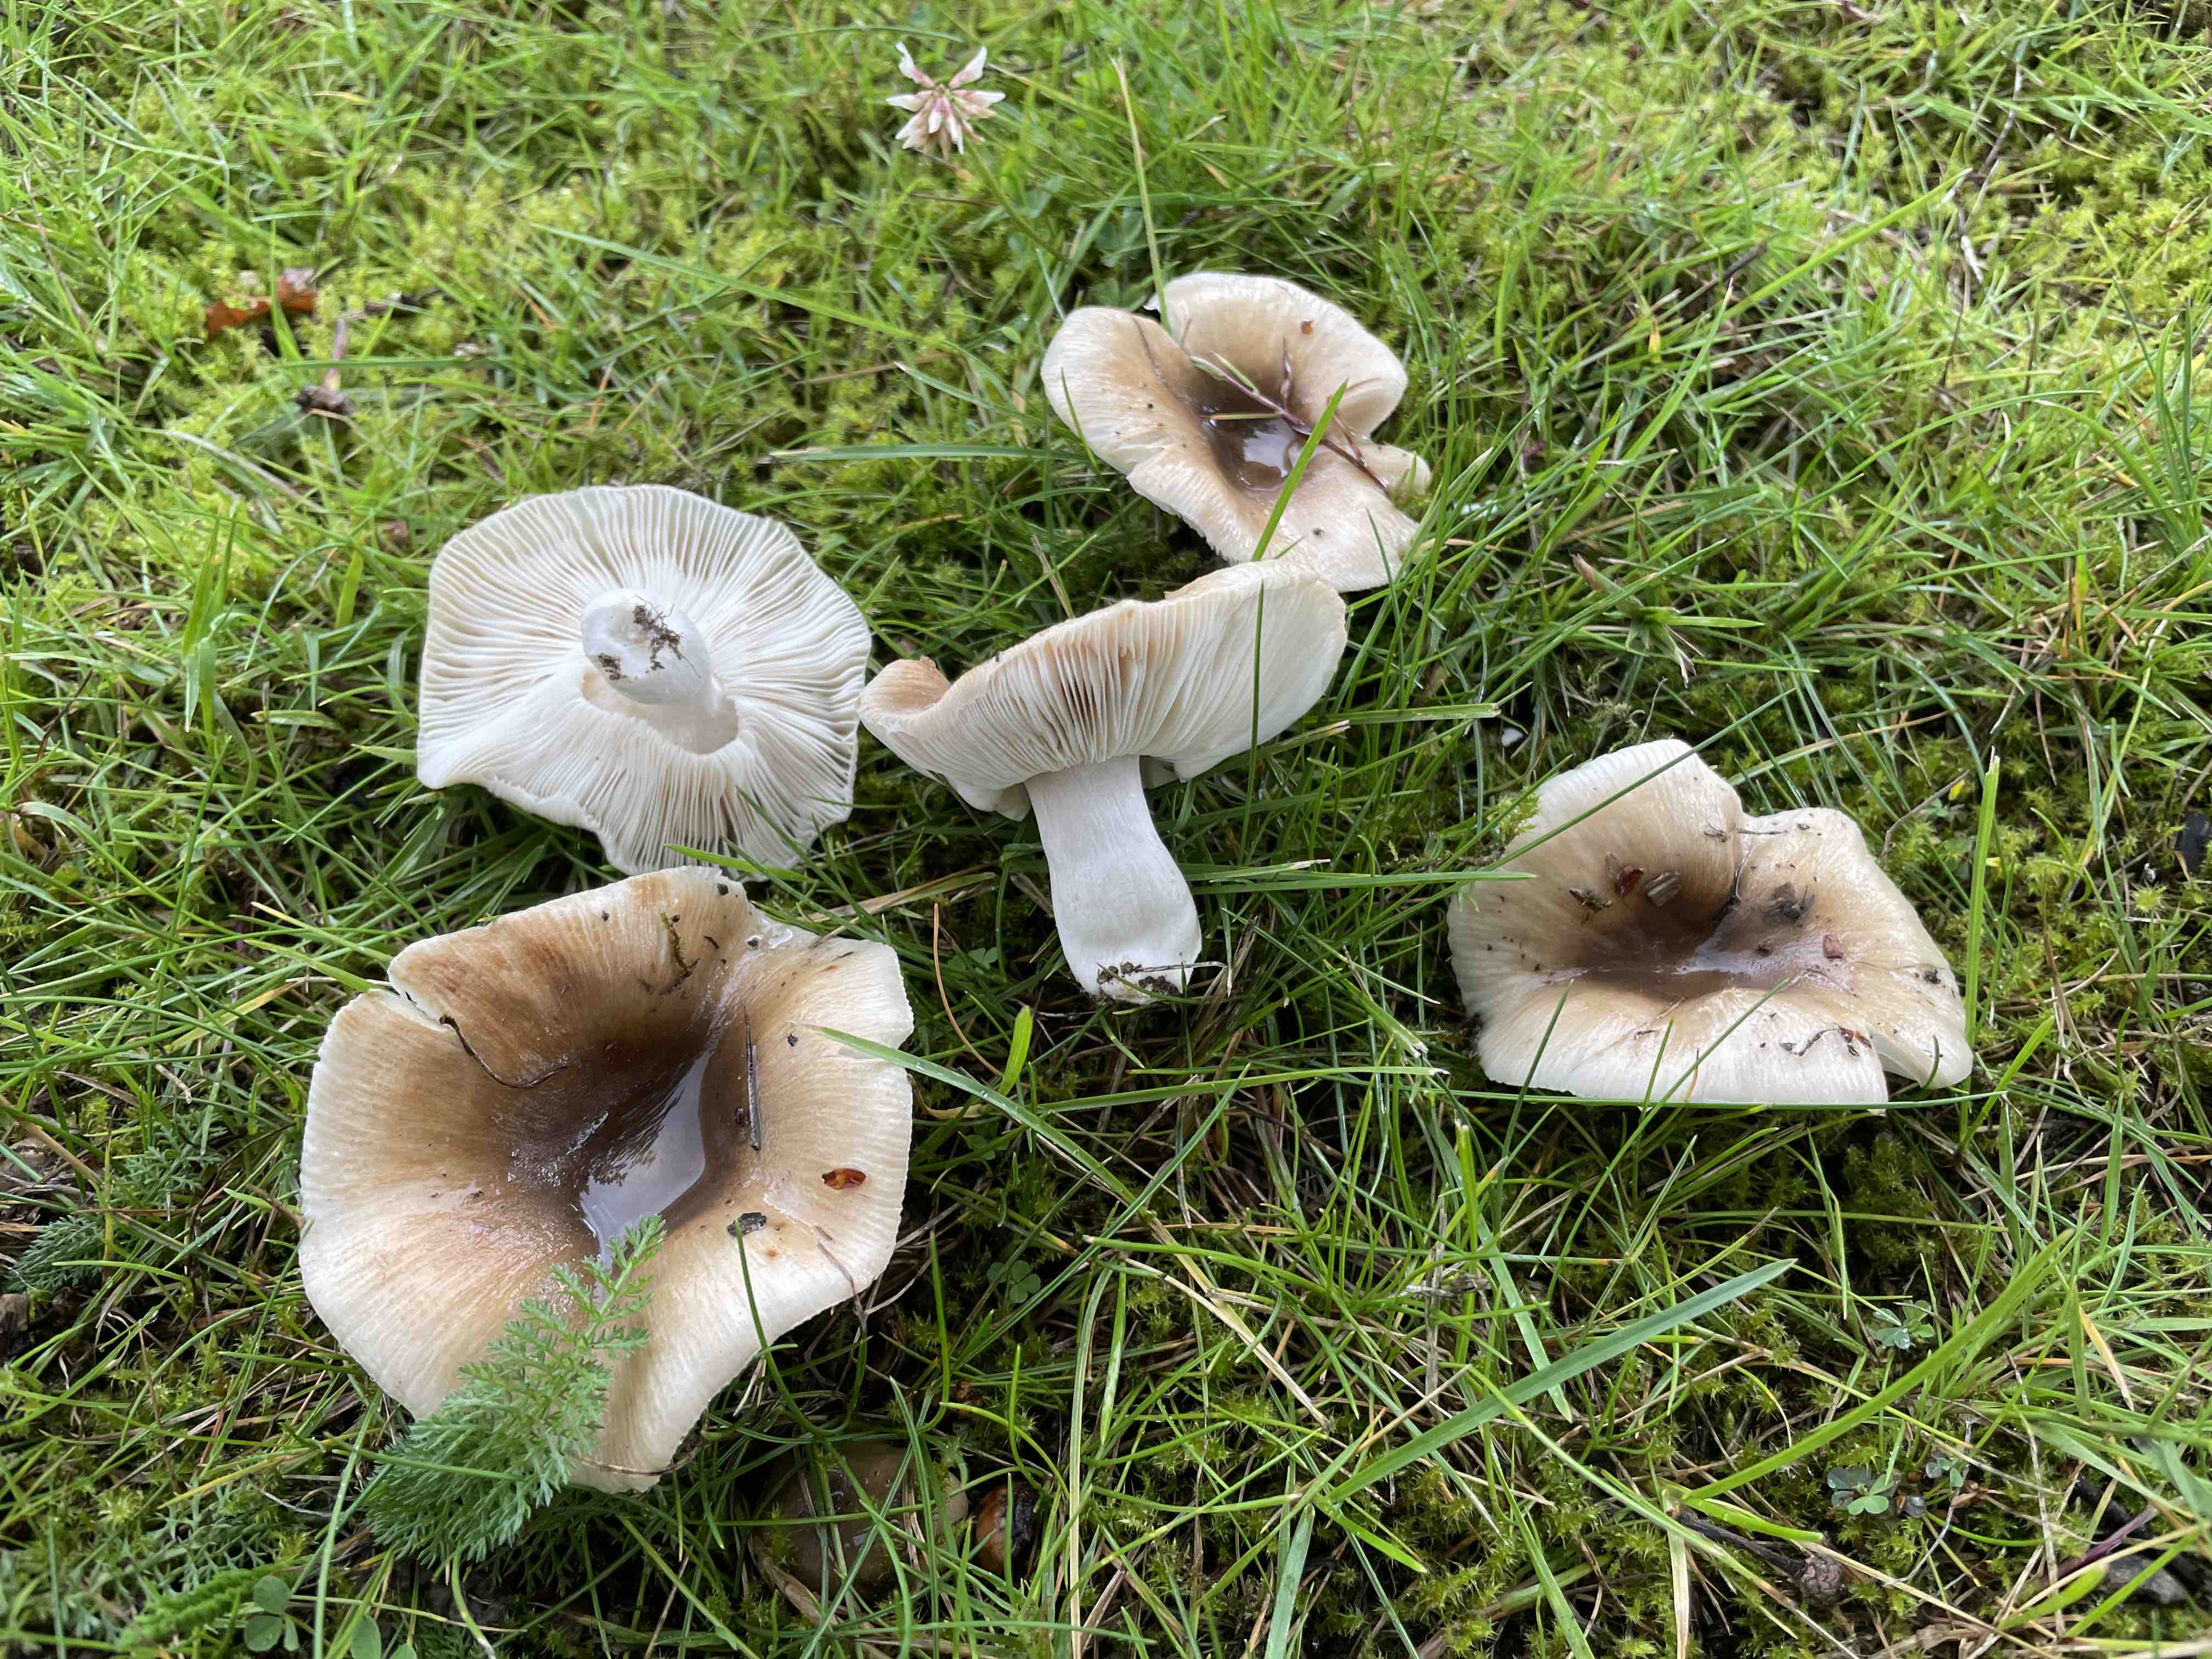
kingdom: Fungi
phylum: Basidiomycota
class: Agaricomycetes
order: Russulales
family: Russulaceae
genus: Russula
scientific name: Russula recondita
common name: mild kam-skørhat
